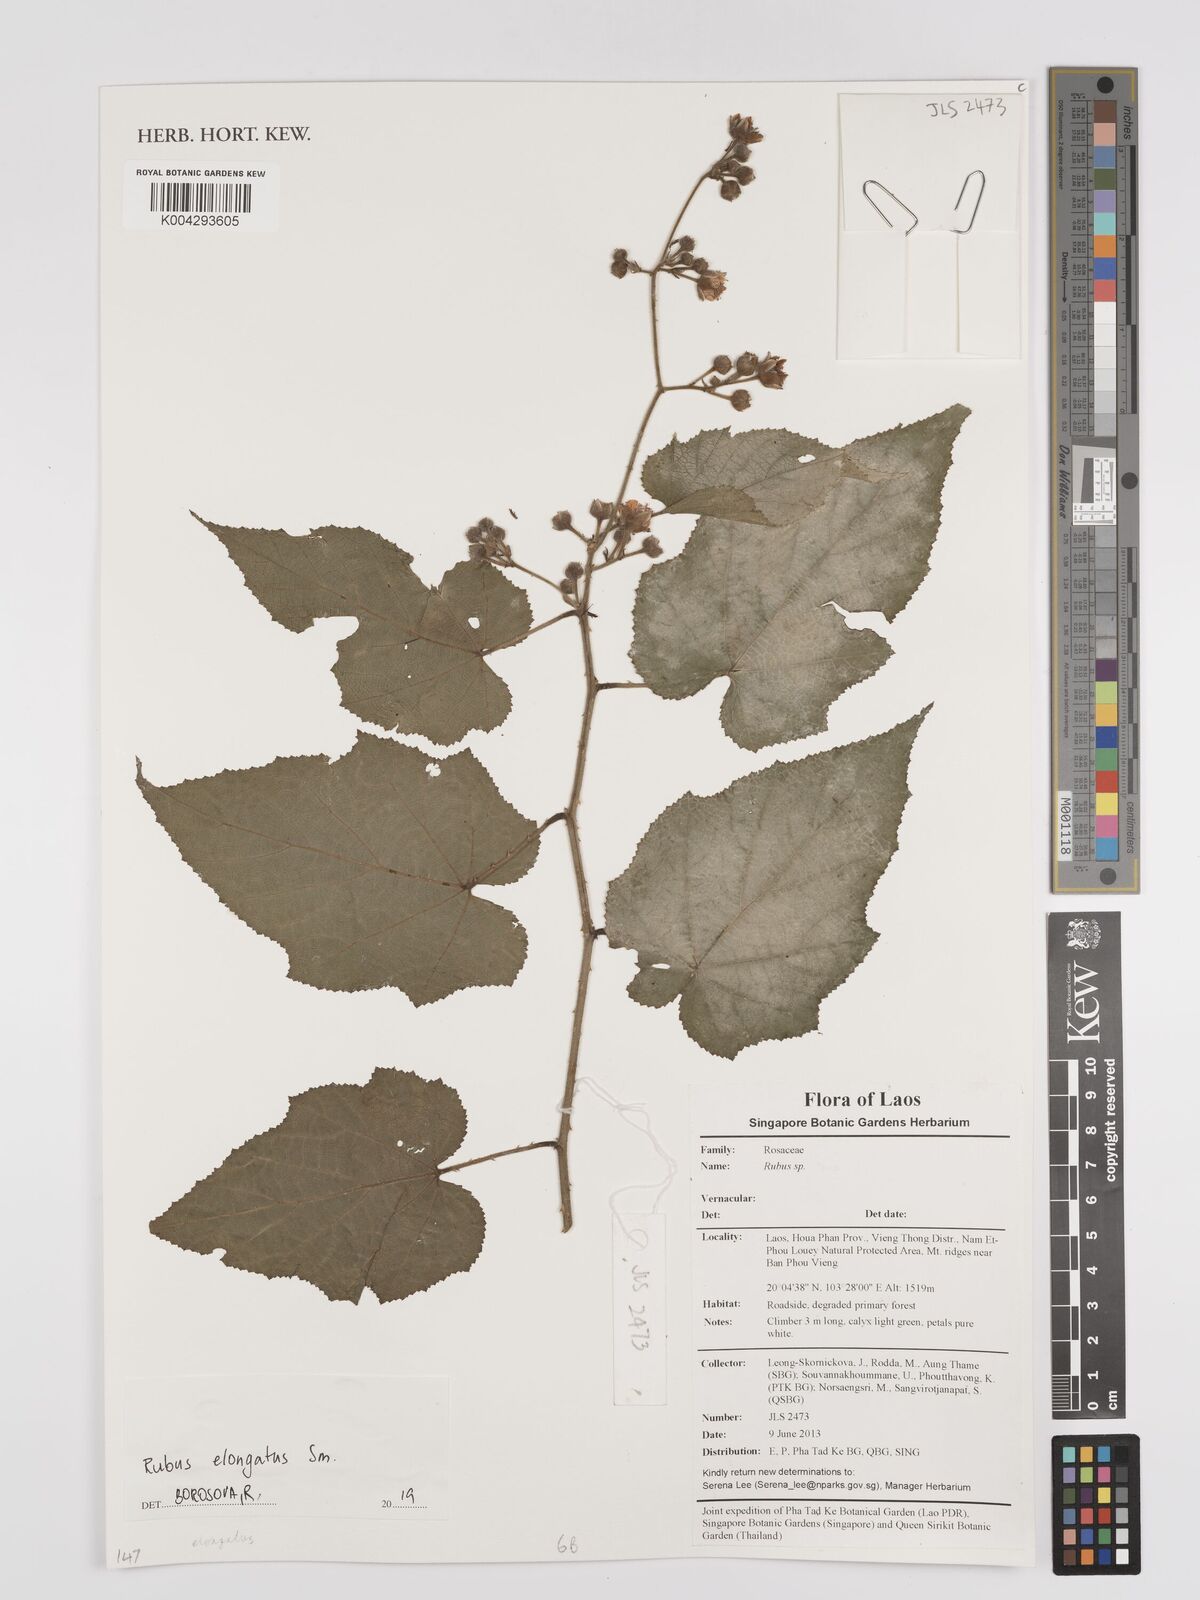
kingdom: Plantae
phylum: Tracheophyta
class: Magnoliopsida
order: Rosales
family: Rosaceae
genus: Rubus
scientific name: Rubus
